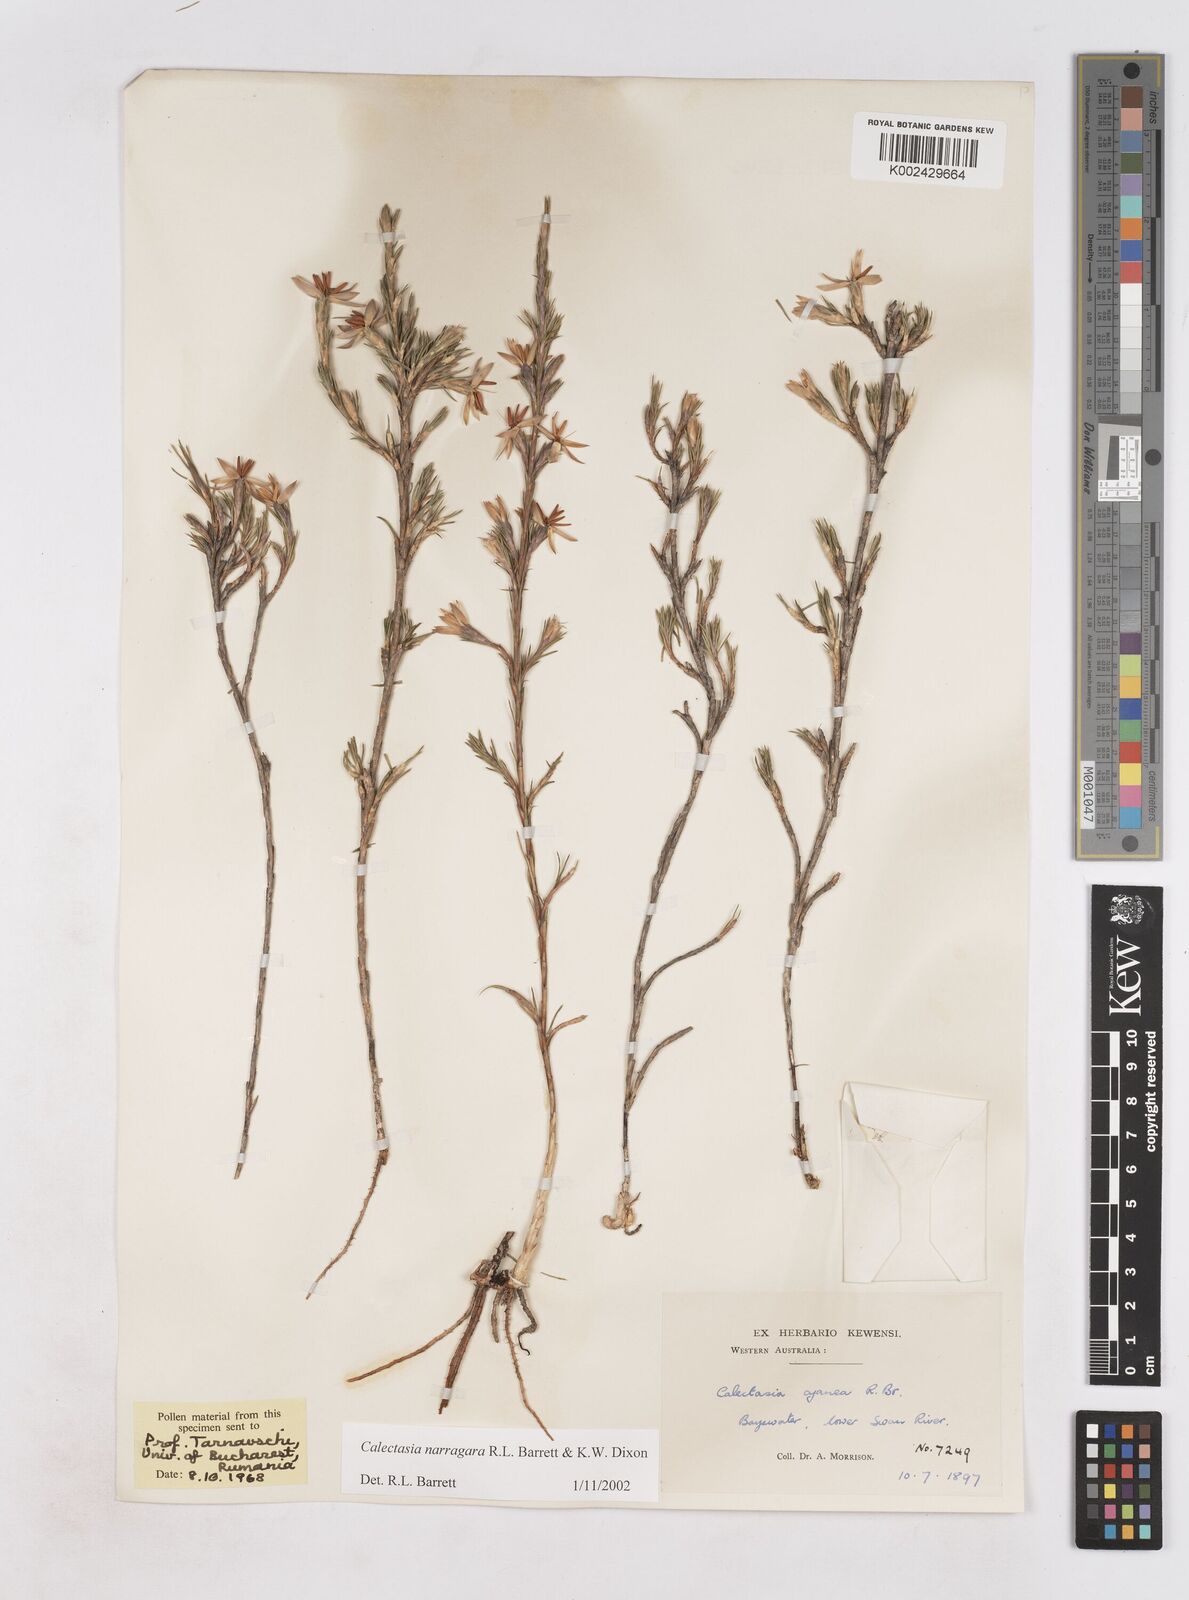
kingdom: Plantae
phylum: Tracheophyta
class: Liliopsida
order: Arecales
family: Dasypogonaceae
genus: Calectasia
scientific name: Calectasia narragara
